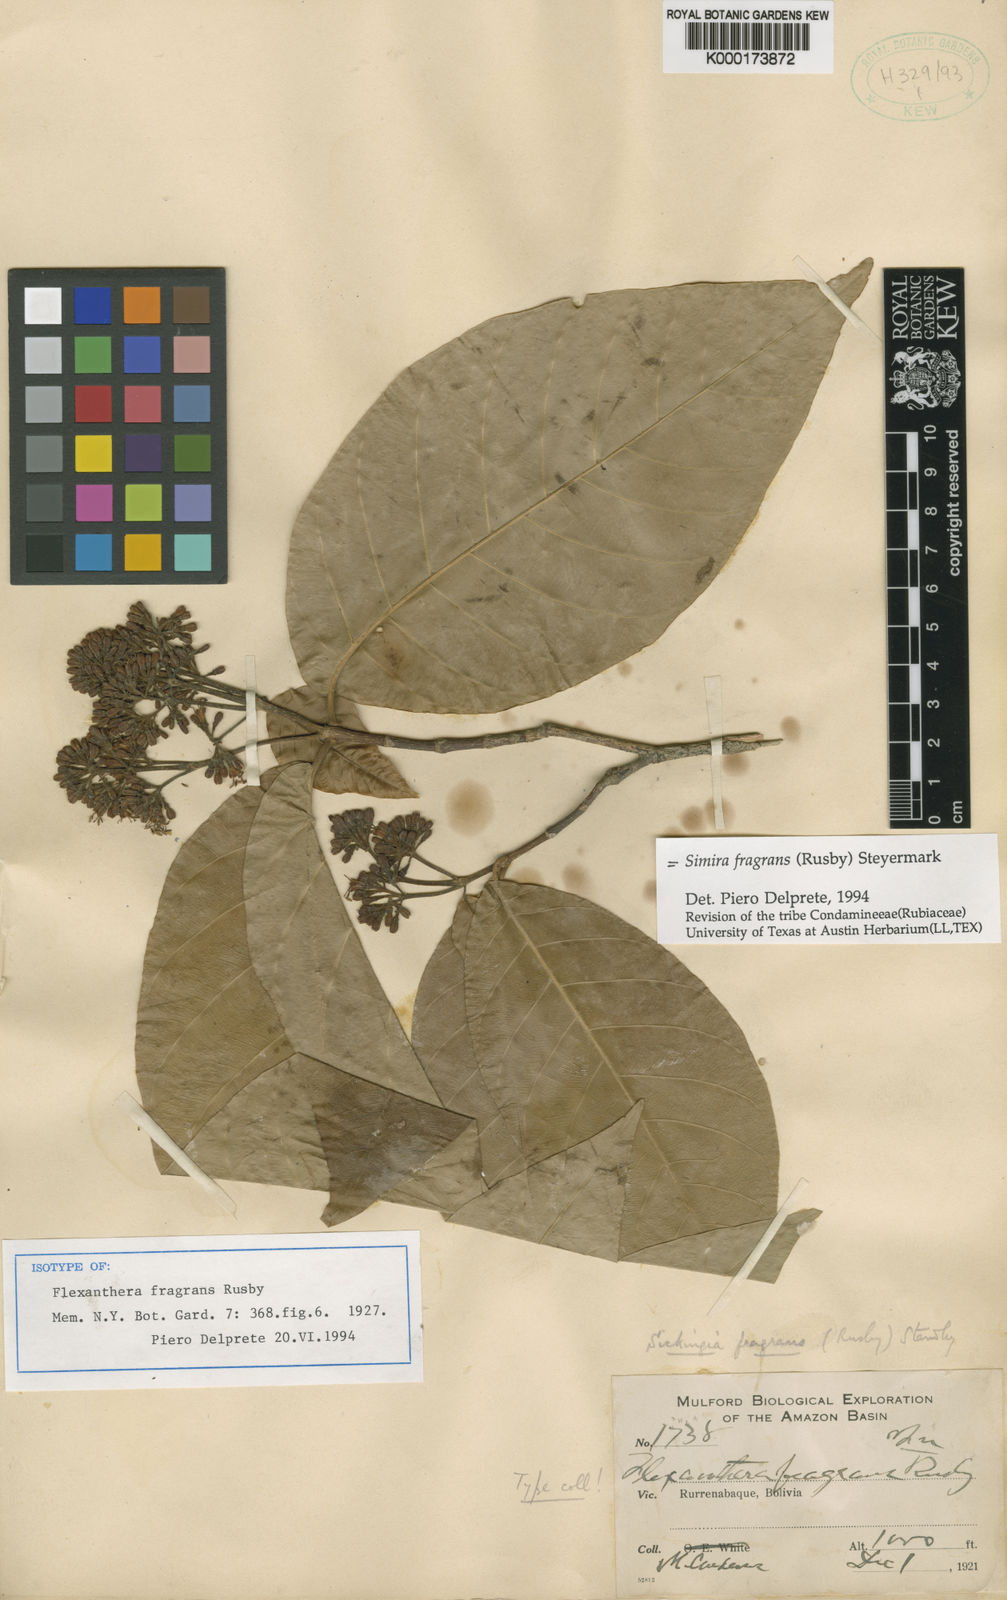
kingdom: Plantae
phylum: Tracheophyta
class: Magnoliopsida
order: Gentianales
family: Rubiaceae
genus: Simira
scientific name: Simira fragrans
